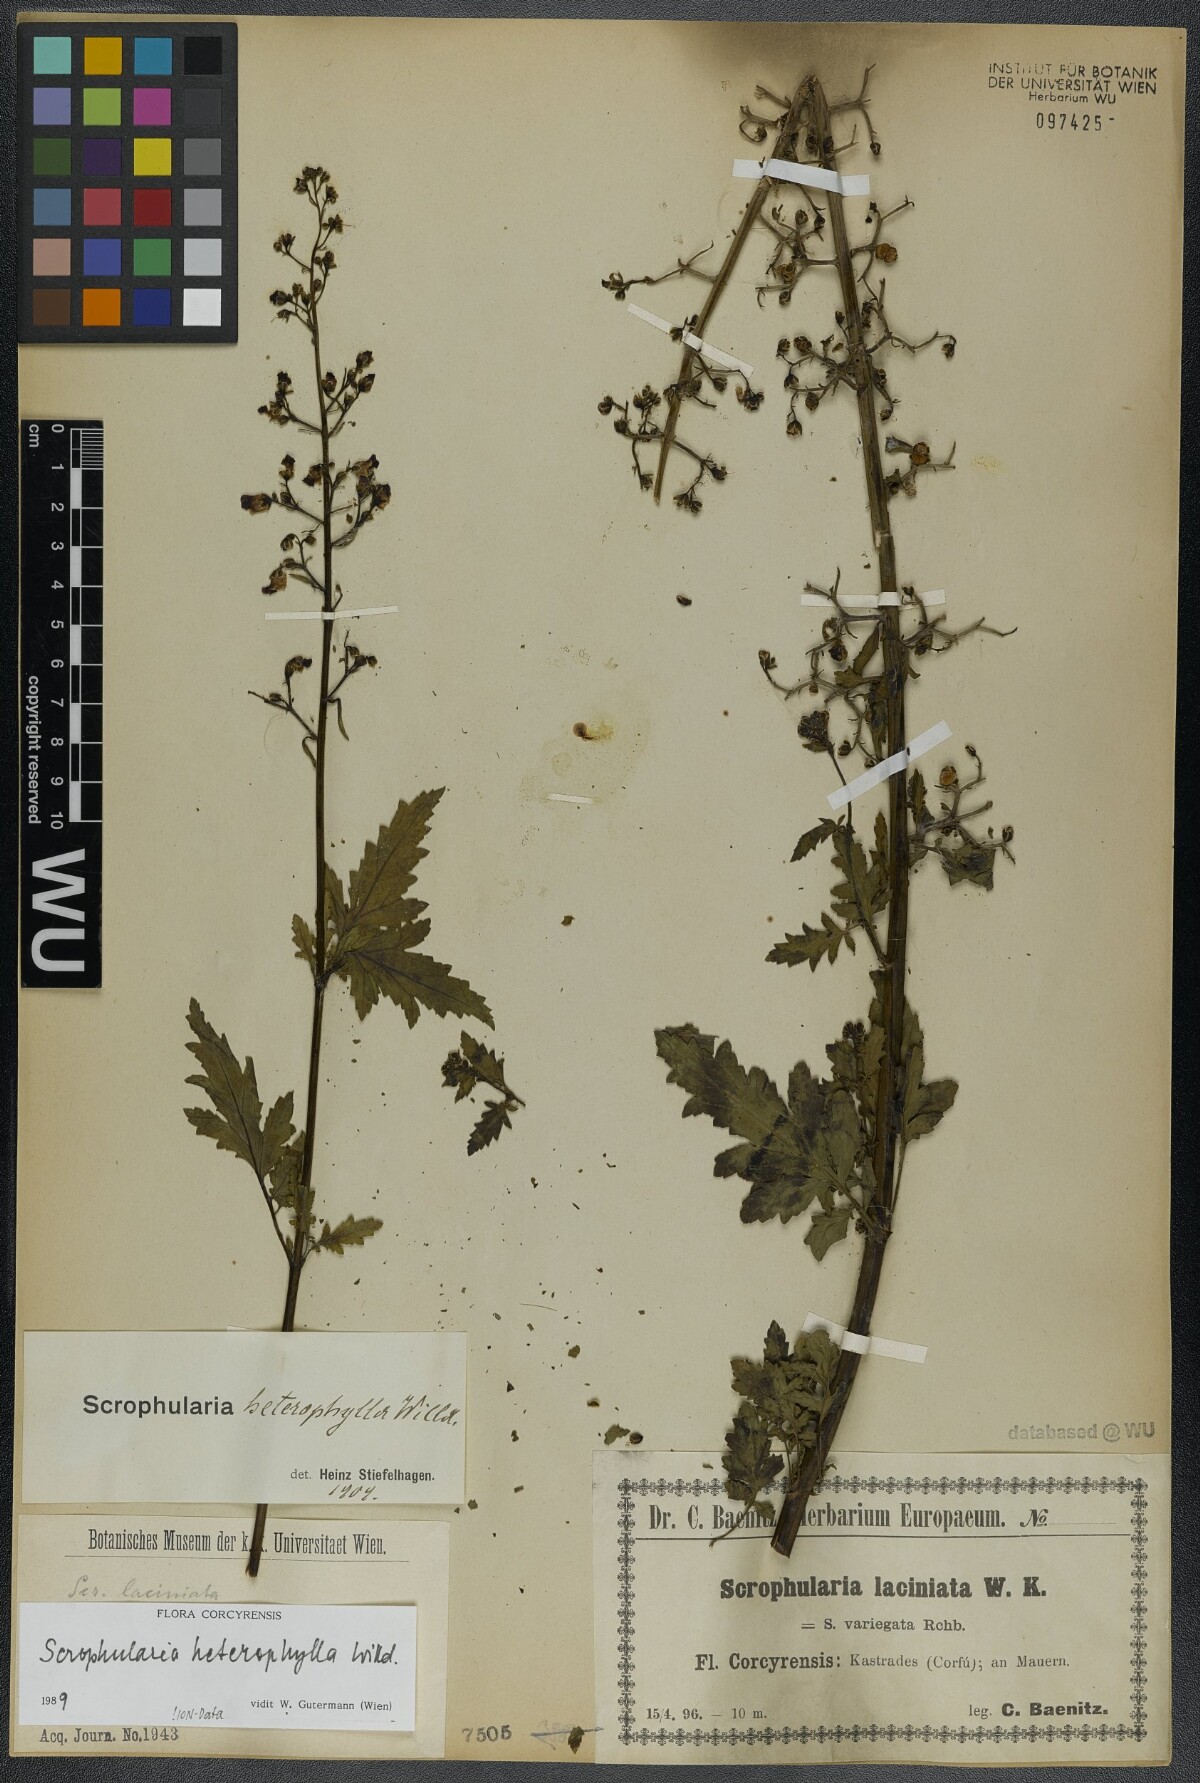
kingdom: Plantae
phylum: Tracheophyta
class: Magnoliopsida
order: Lamiales
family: Scrophulariaceae
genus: Scrophularia
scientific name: Scrophularia heterophylla
